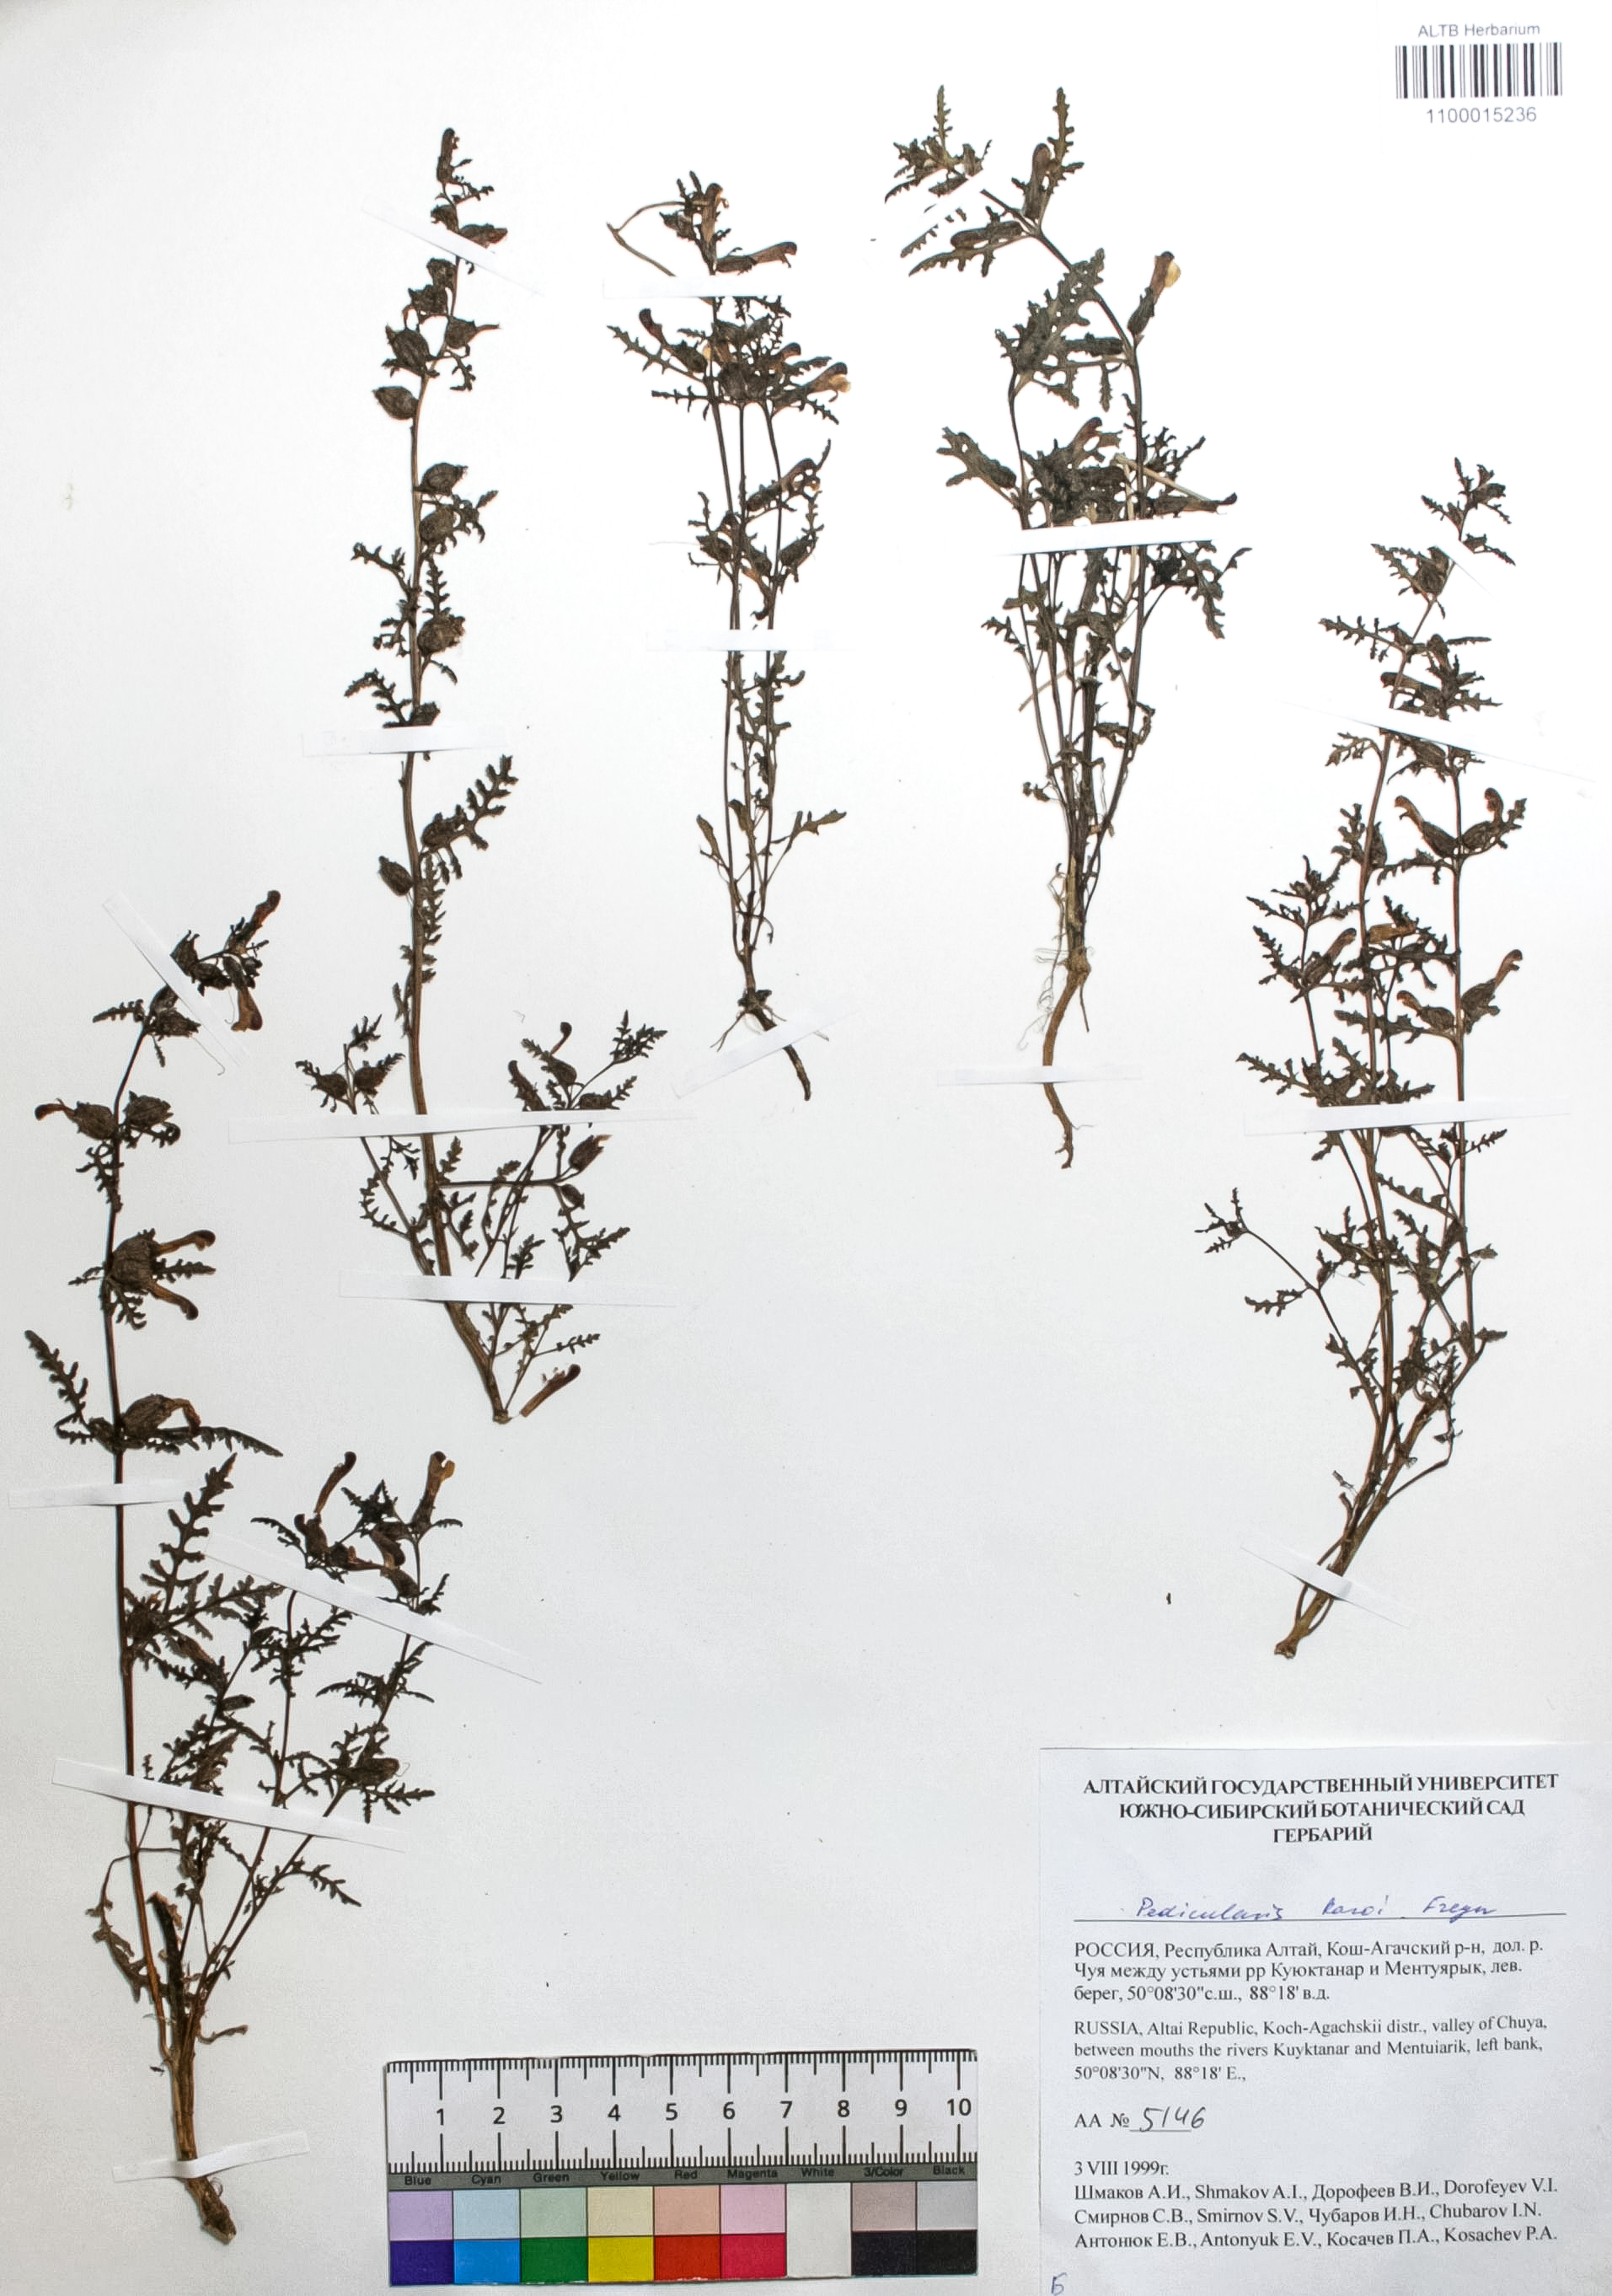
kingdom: Plantae
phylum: Tracheophyta
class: Magnoliopsida
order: Lamiales
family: Orobanchaceae
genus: Pedicularis
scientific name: Pedicularis karoi
